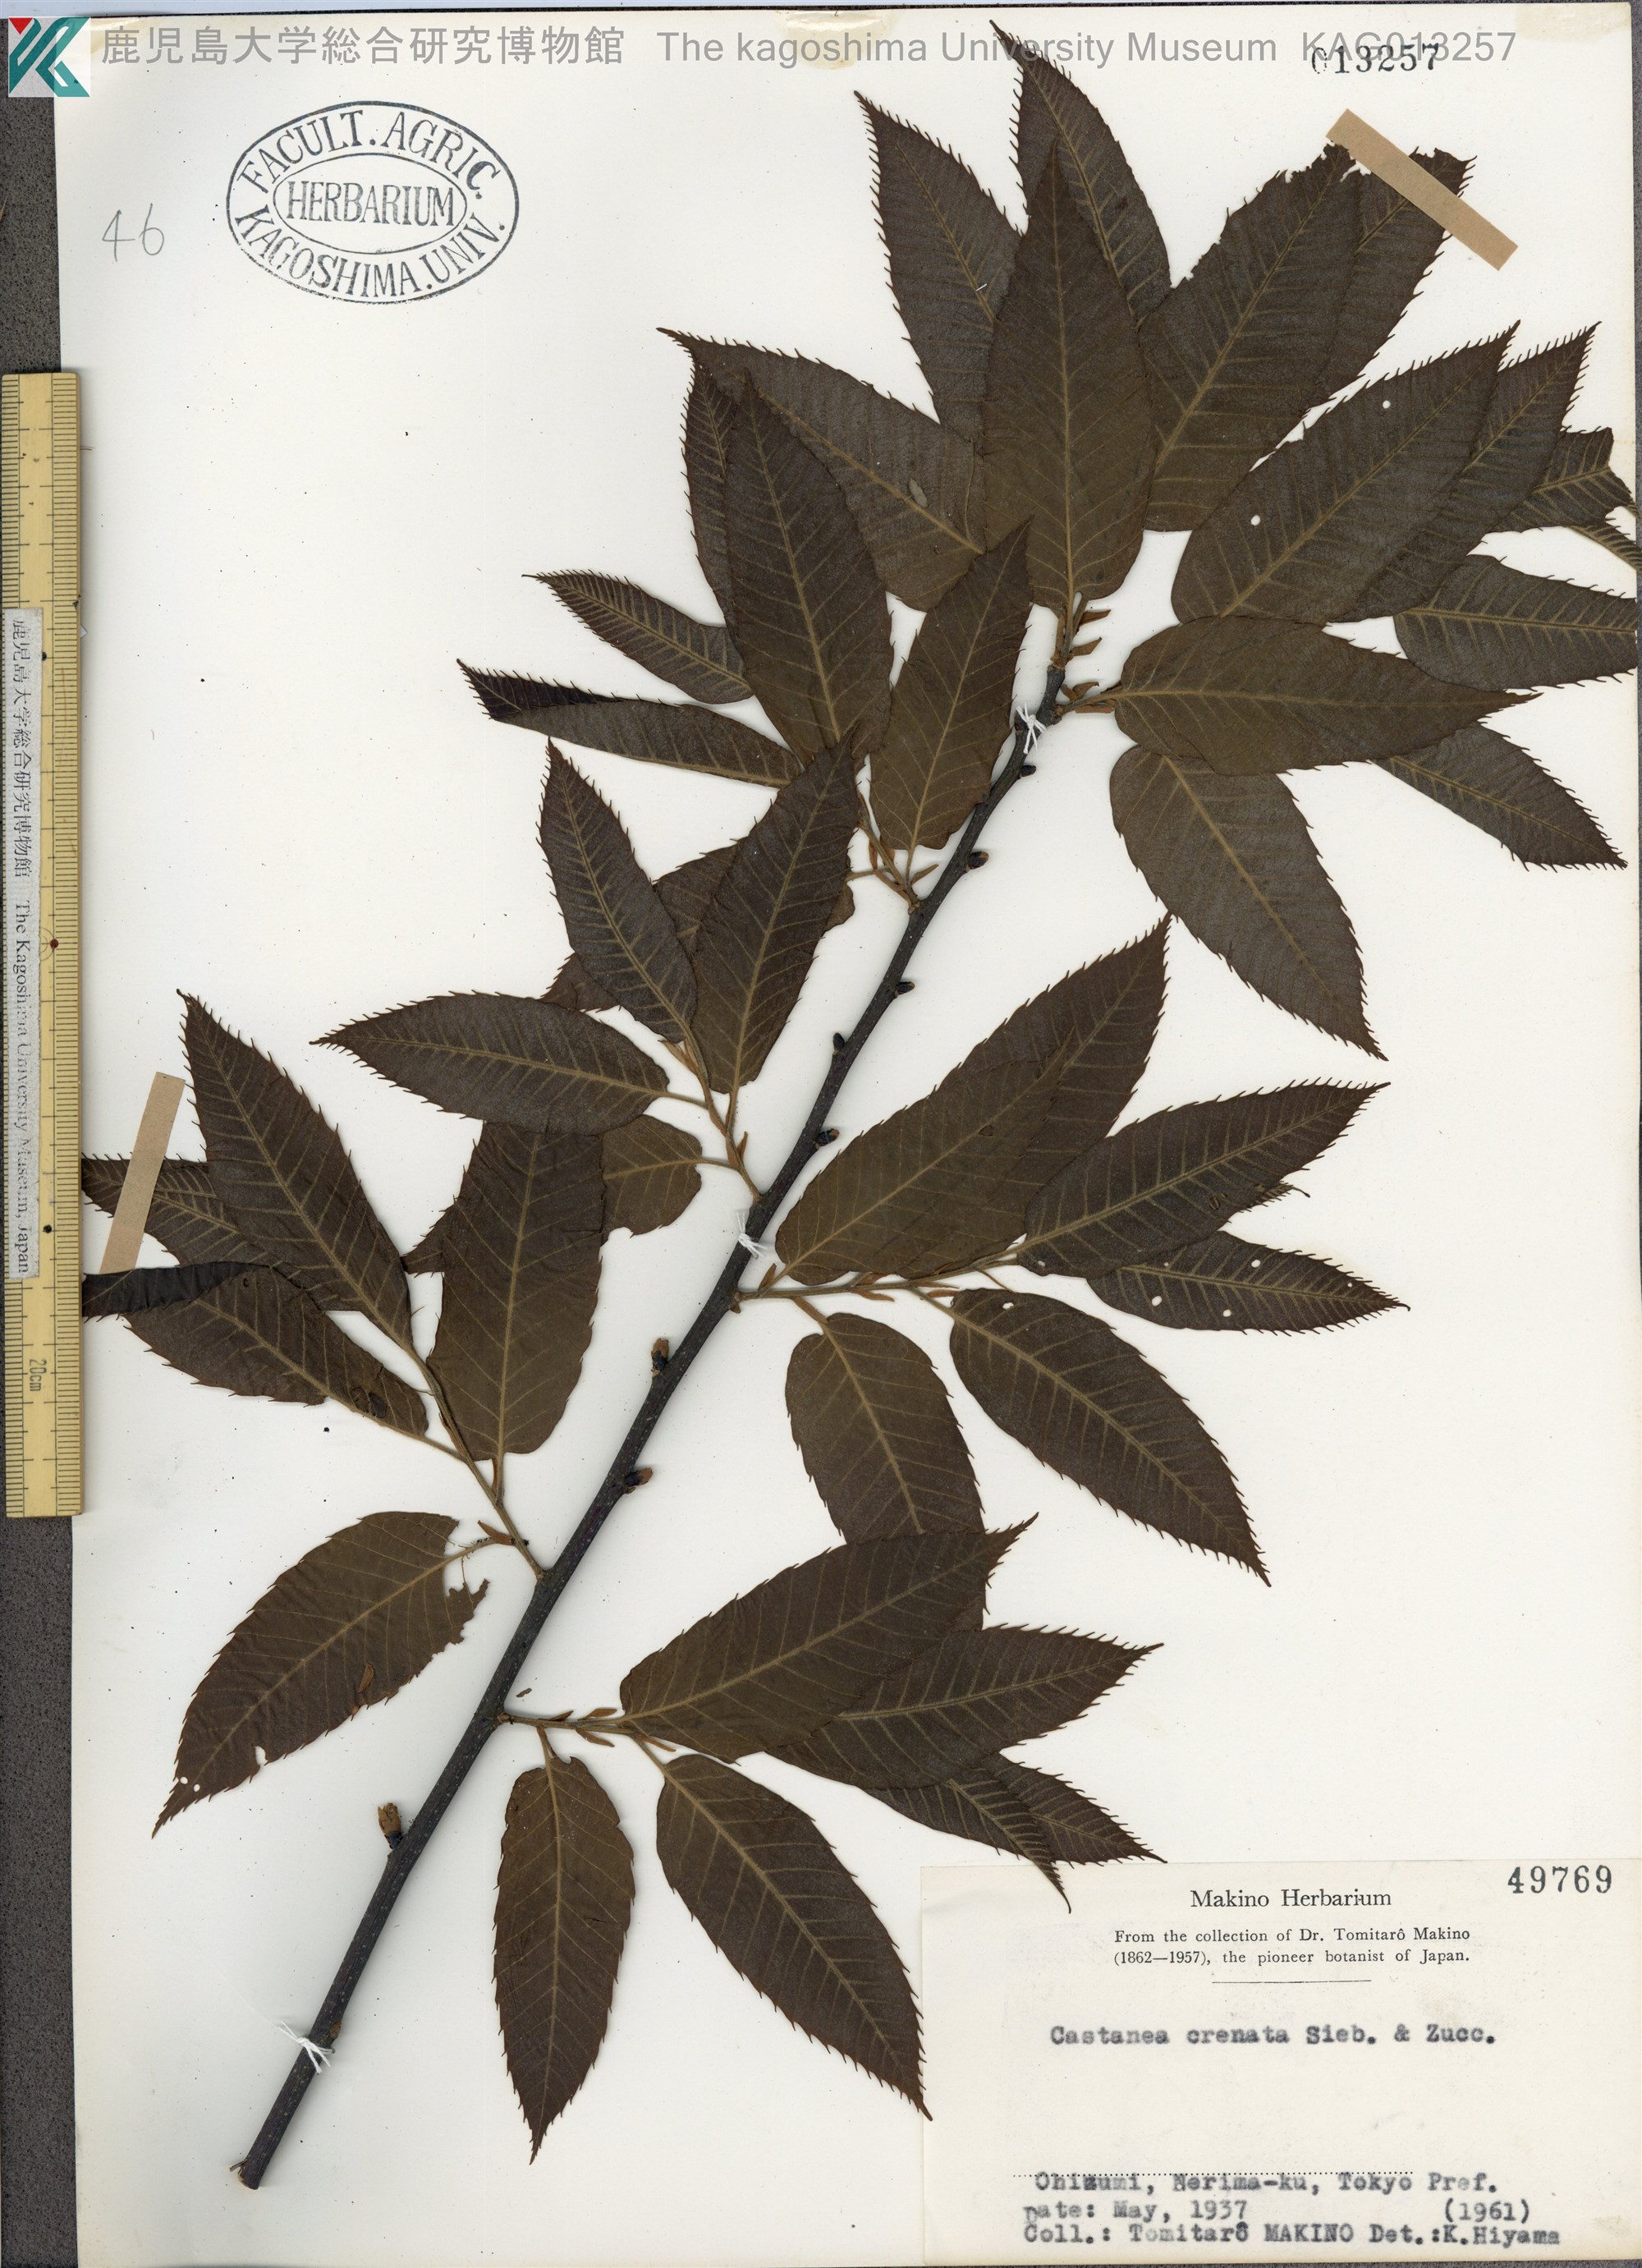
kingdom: Plantae
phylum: Tracheophyta
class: Magnoliopsida
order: Fagales
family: Fagaceae
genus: Castanea
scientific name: Castanea crenata
